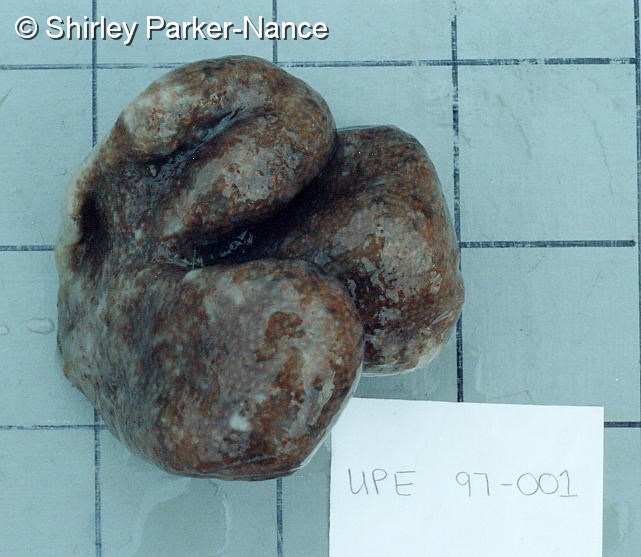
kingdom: Animalia
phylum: Chordata
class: Ascidiacea
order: Aplousobranchia
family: Pseudodistomidae
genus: Pseudodistoma
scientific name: Pseudodistoma
